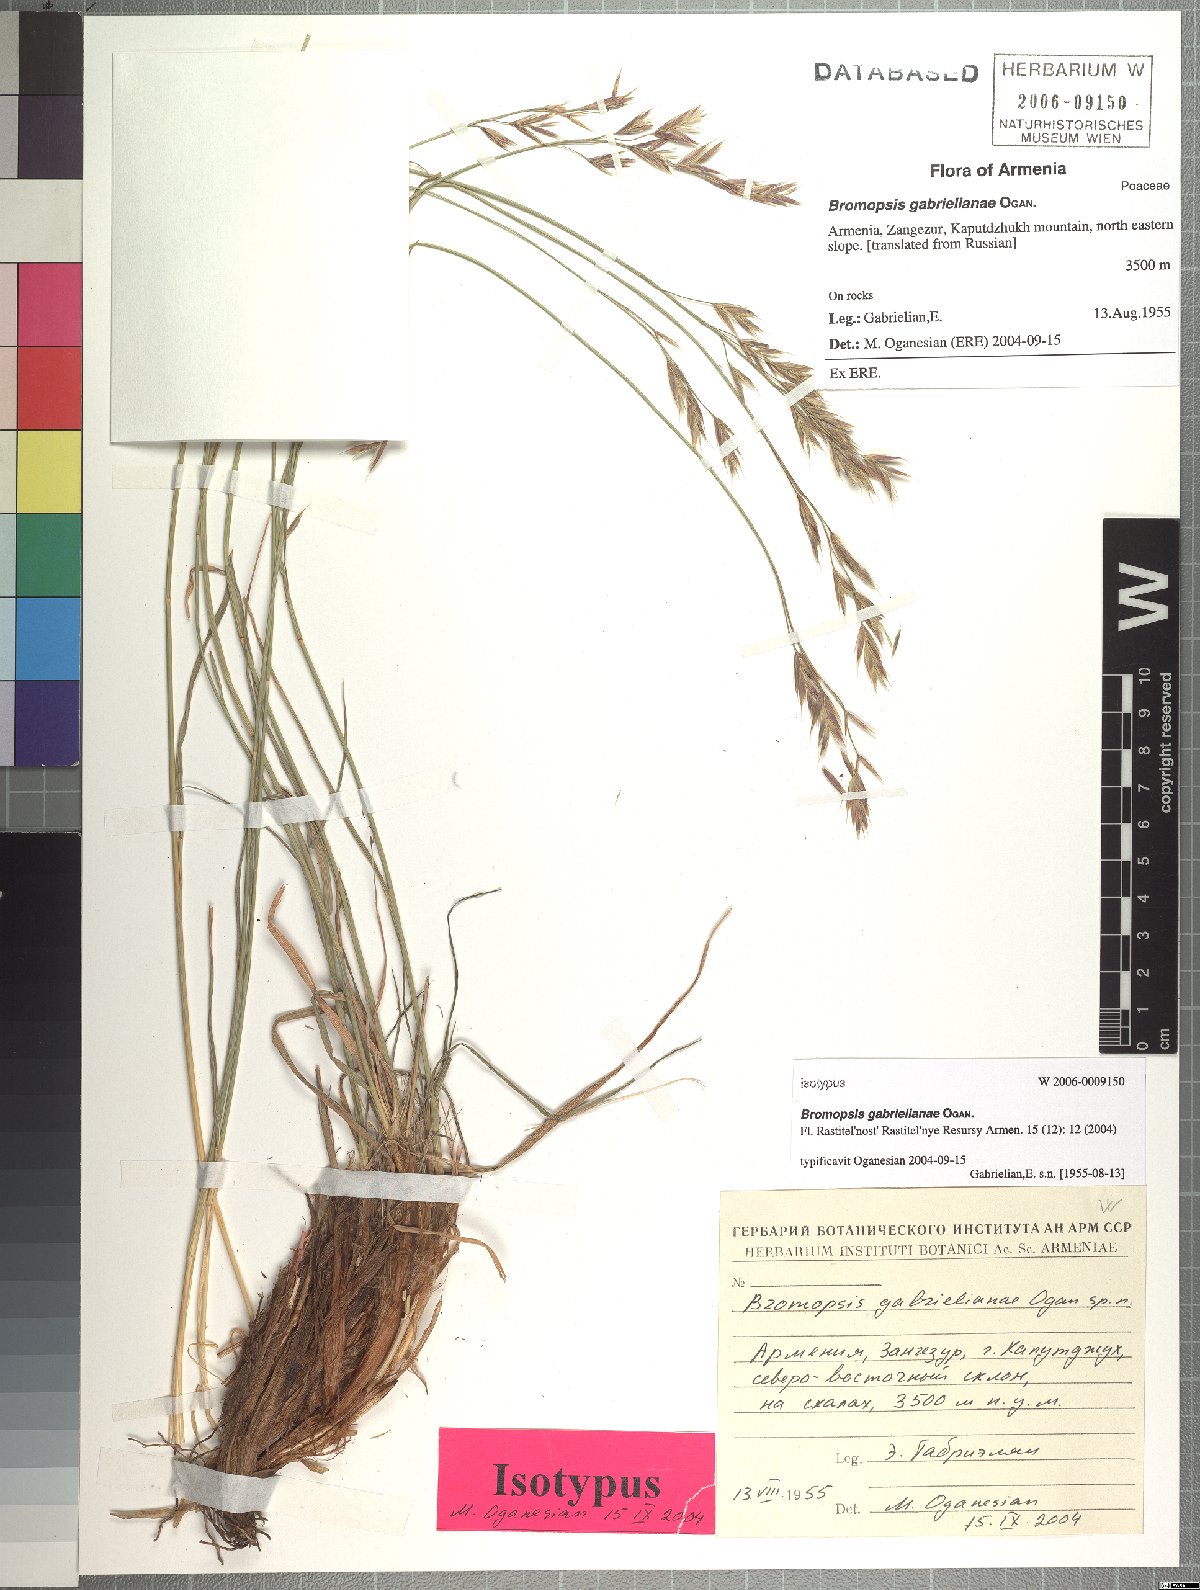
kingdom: Plantae
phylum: Tracheophyta
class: Liliopsida
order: Poales
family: Poaceae
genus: Bromus
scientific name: Bromus tomentosus
